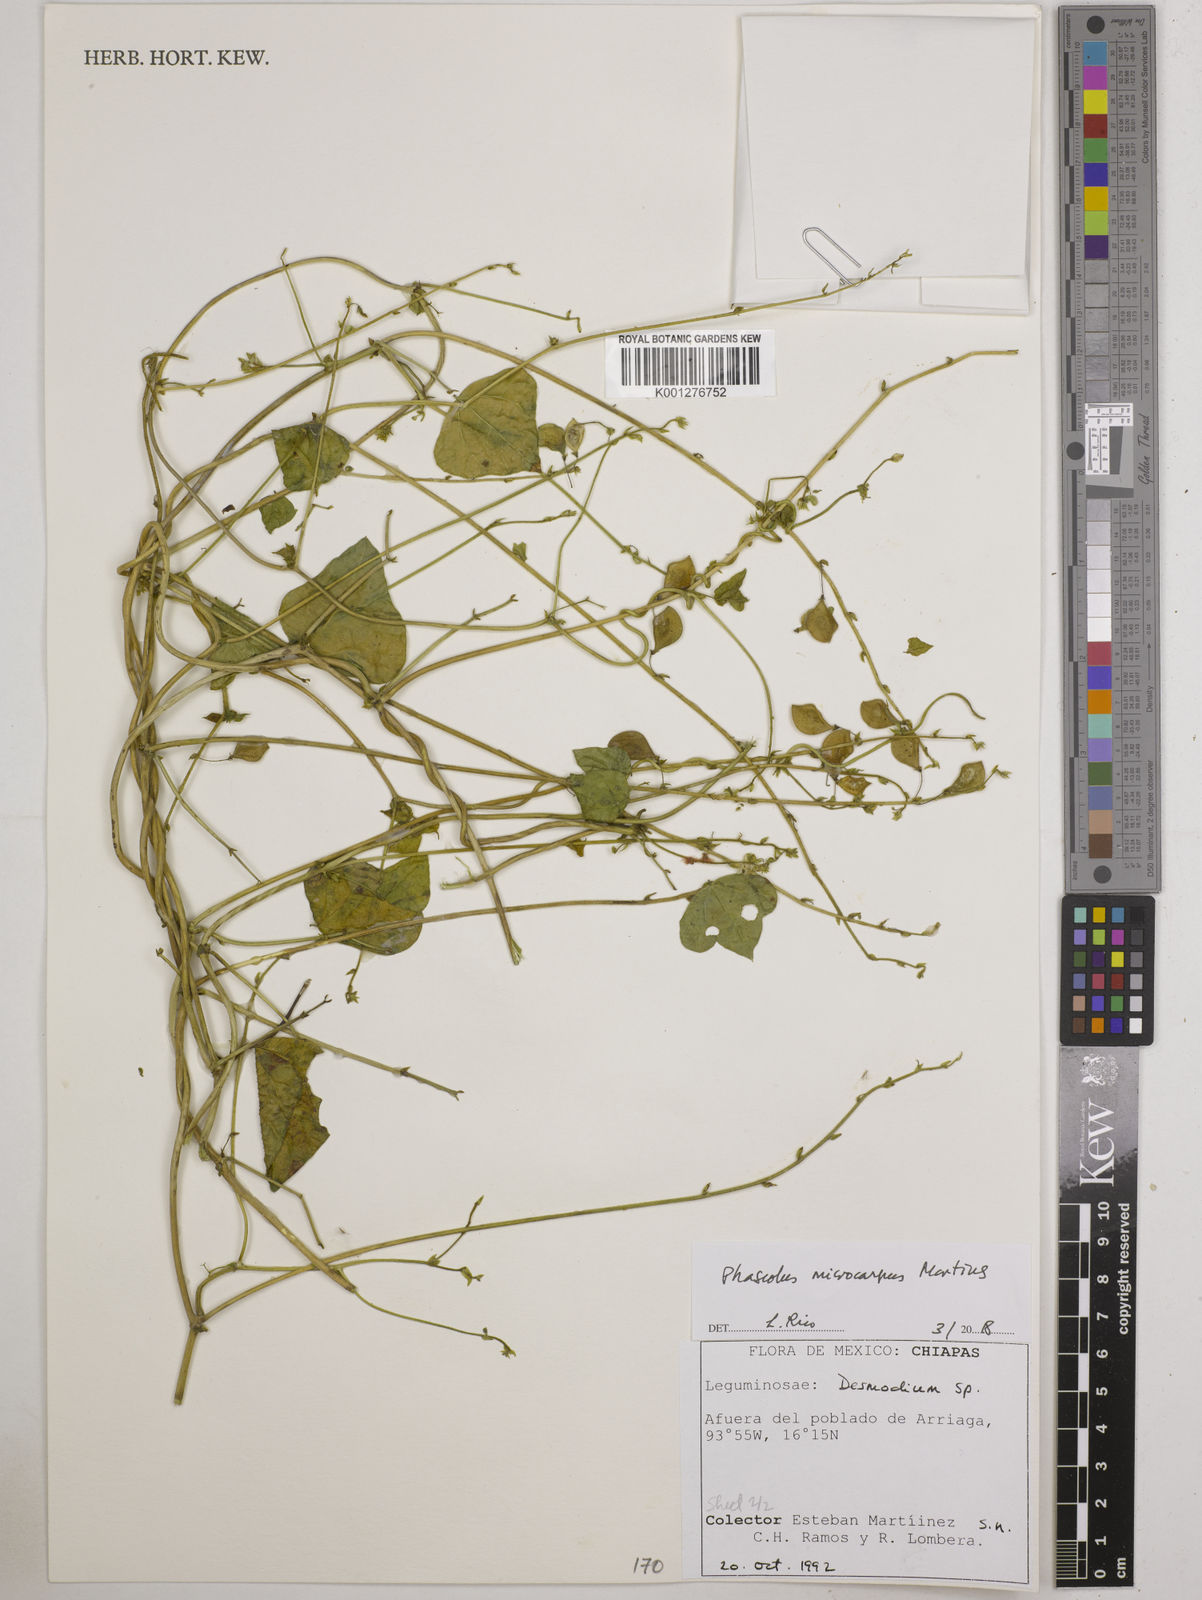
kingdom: Plantae
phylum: Tracheophyta
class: Magnoliopsida
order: Fabales
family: Fabaceae
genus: Phaseolus
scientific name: Phaseolus microcarpus
